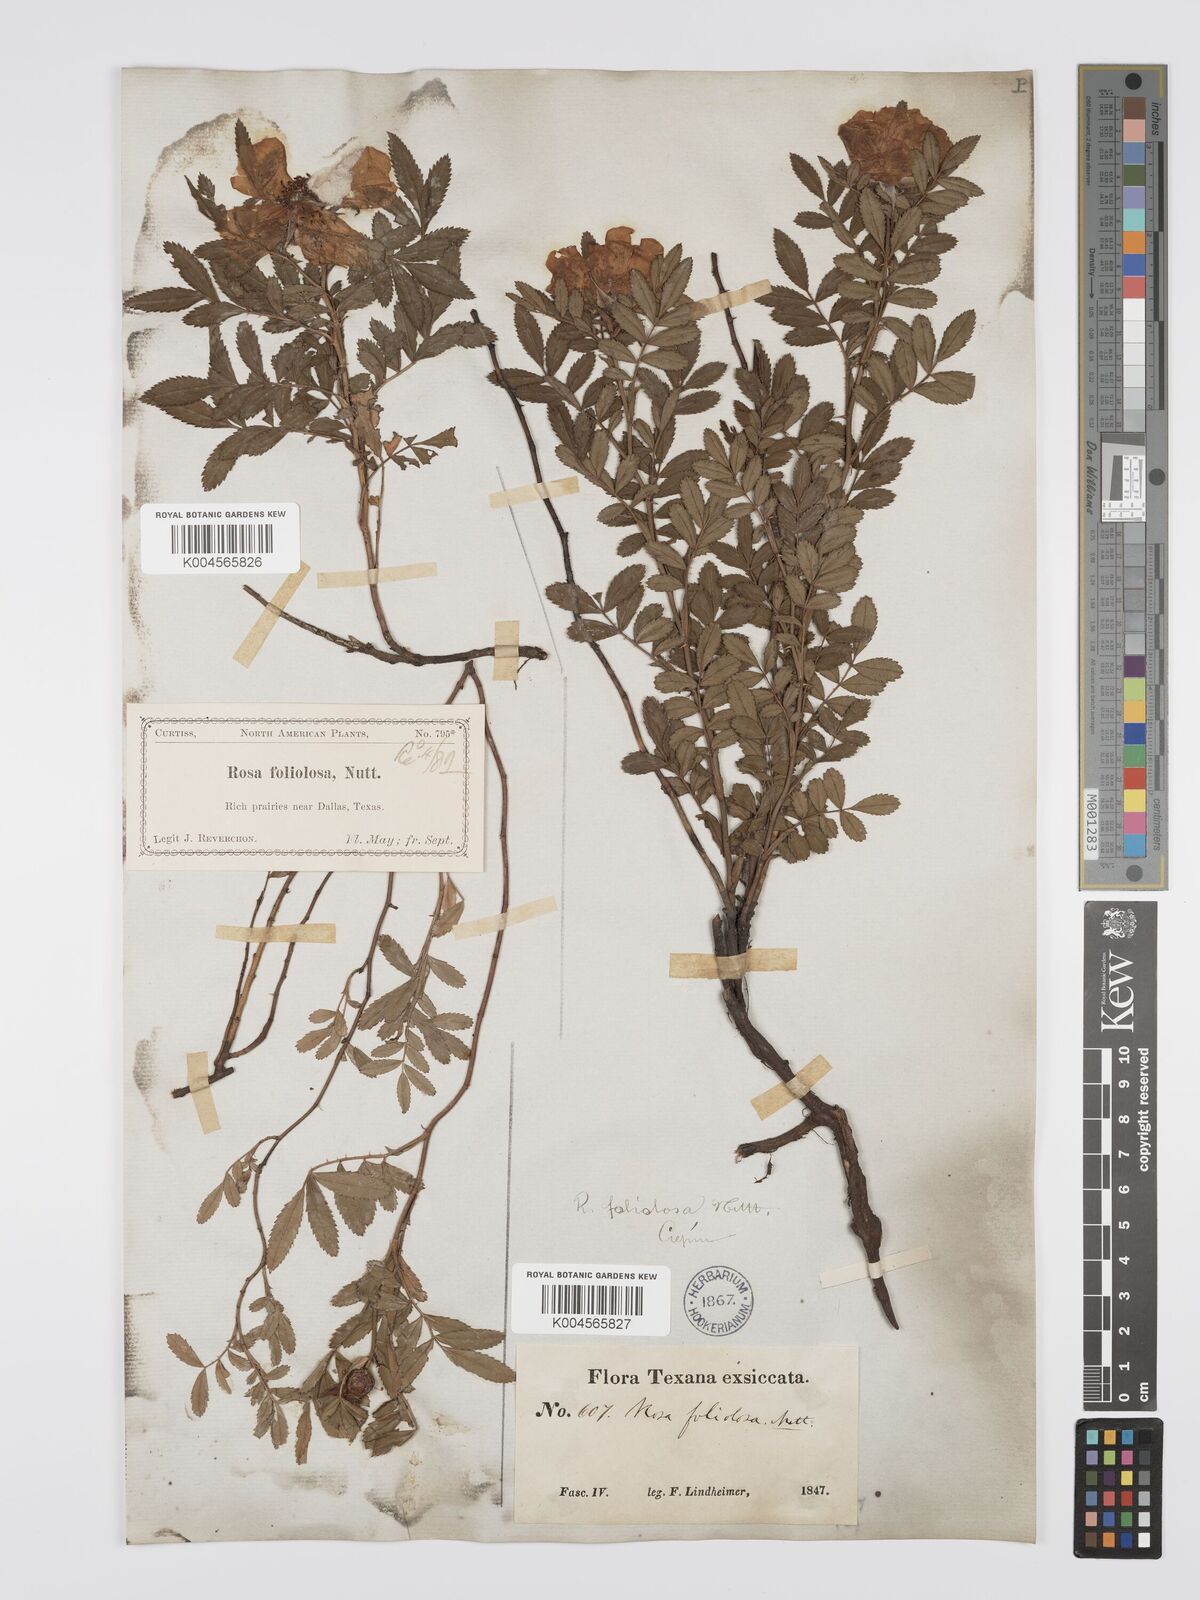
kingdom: Plantae
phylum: Tracheophyta
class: Magnoliopsida
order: Rosales
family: Rosaceae
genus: Rosa
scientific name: Rosa foliolosa
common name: White prairie rose
